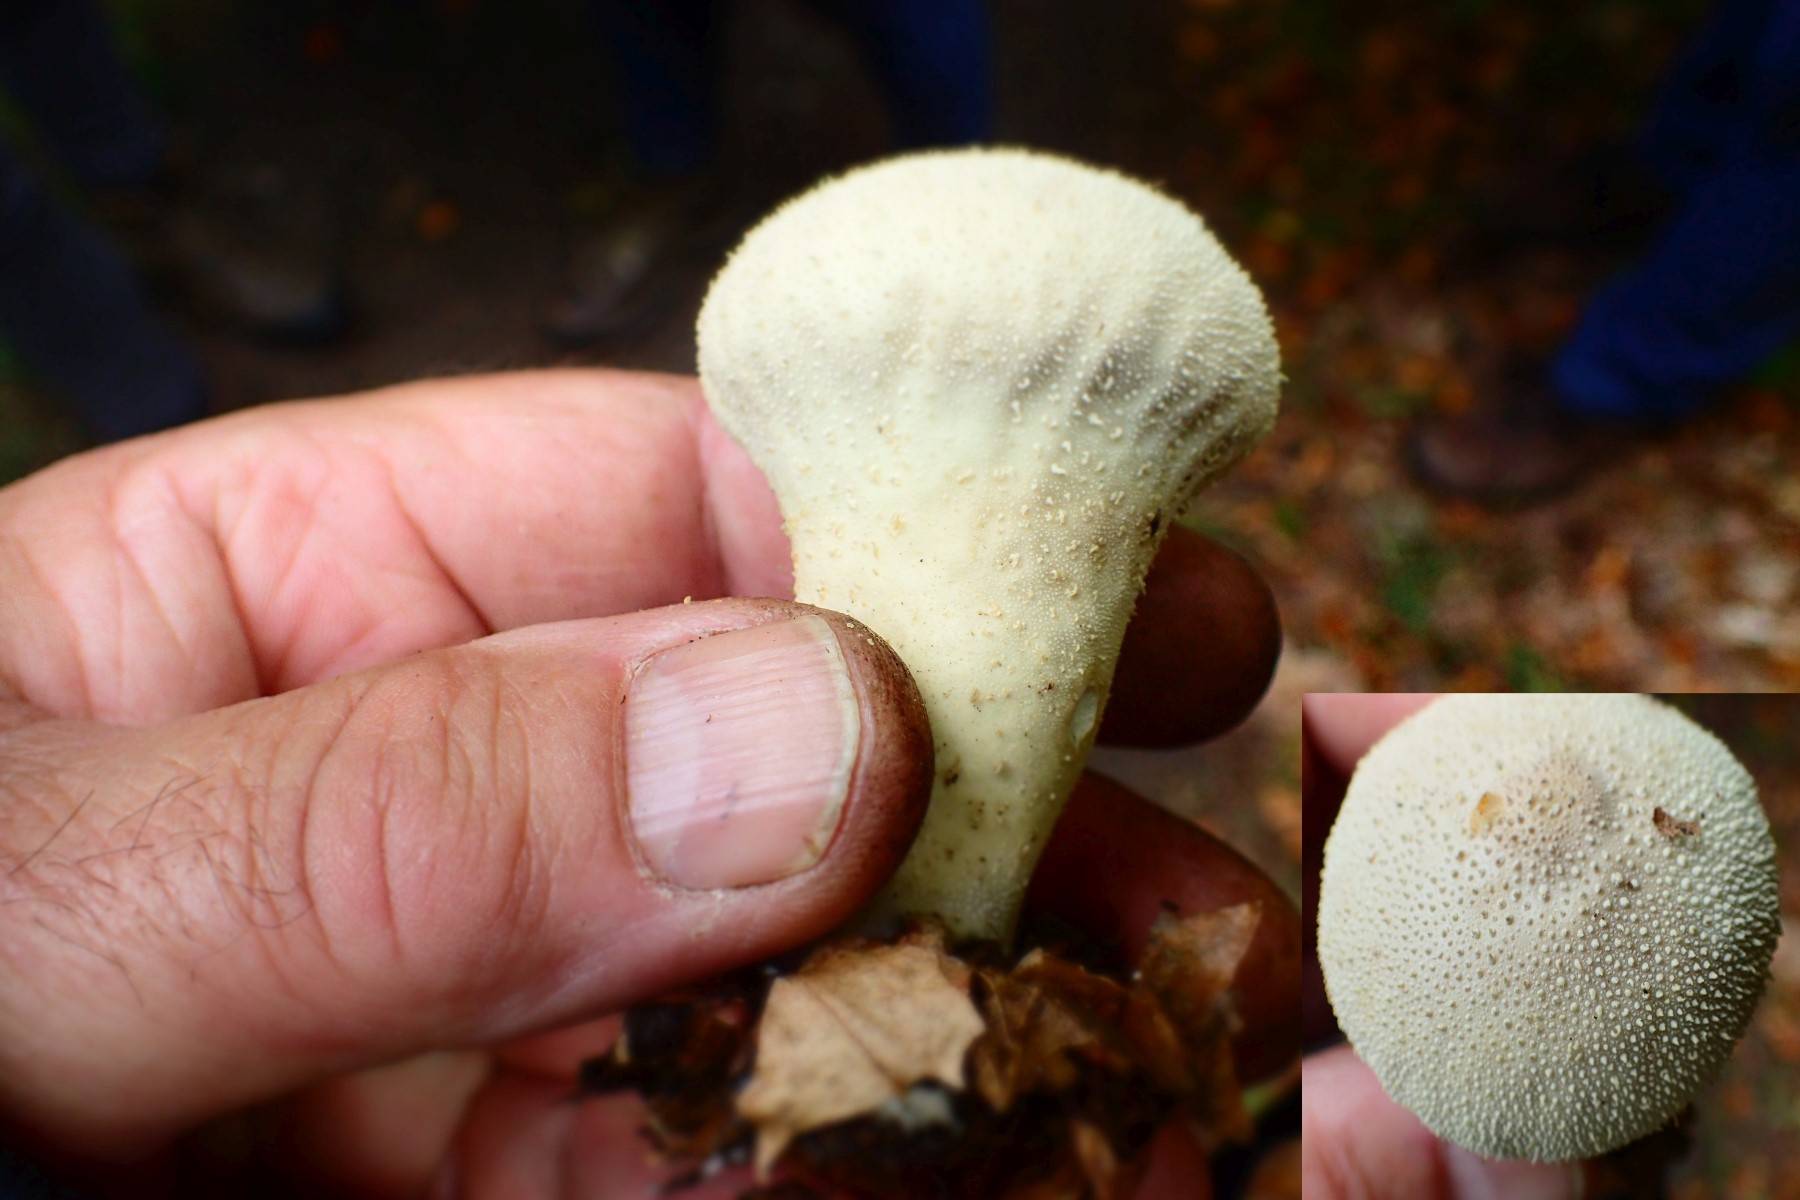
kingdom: Fungi
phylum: Basidiomycota
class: Agaricomycetes
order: Agaricales
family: Lycoperdaceae
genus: Lycoperdon
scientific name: Lycoperdon perlatum
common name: krystal-støvbold
